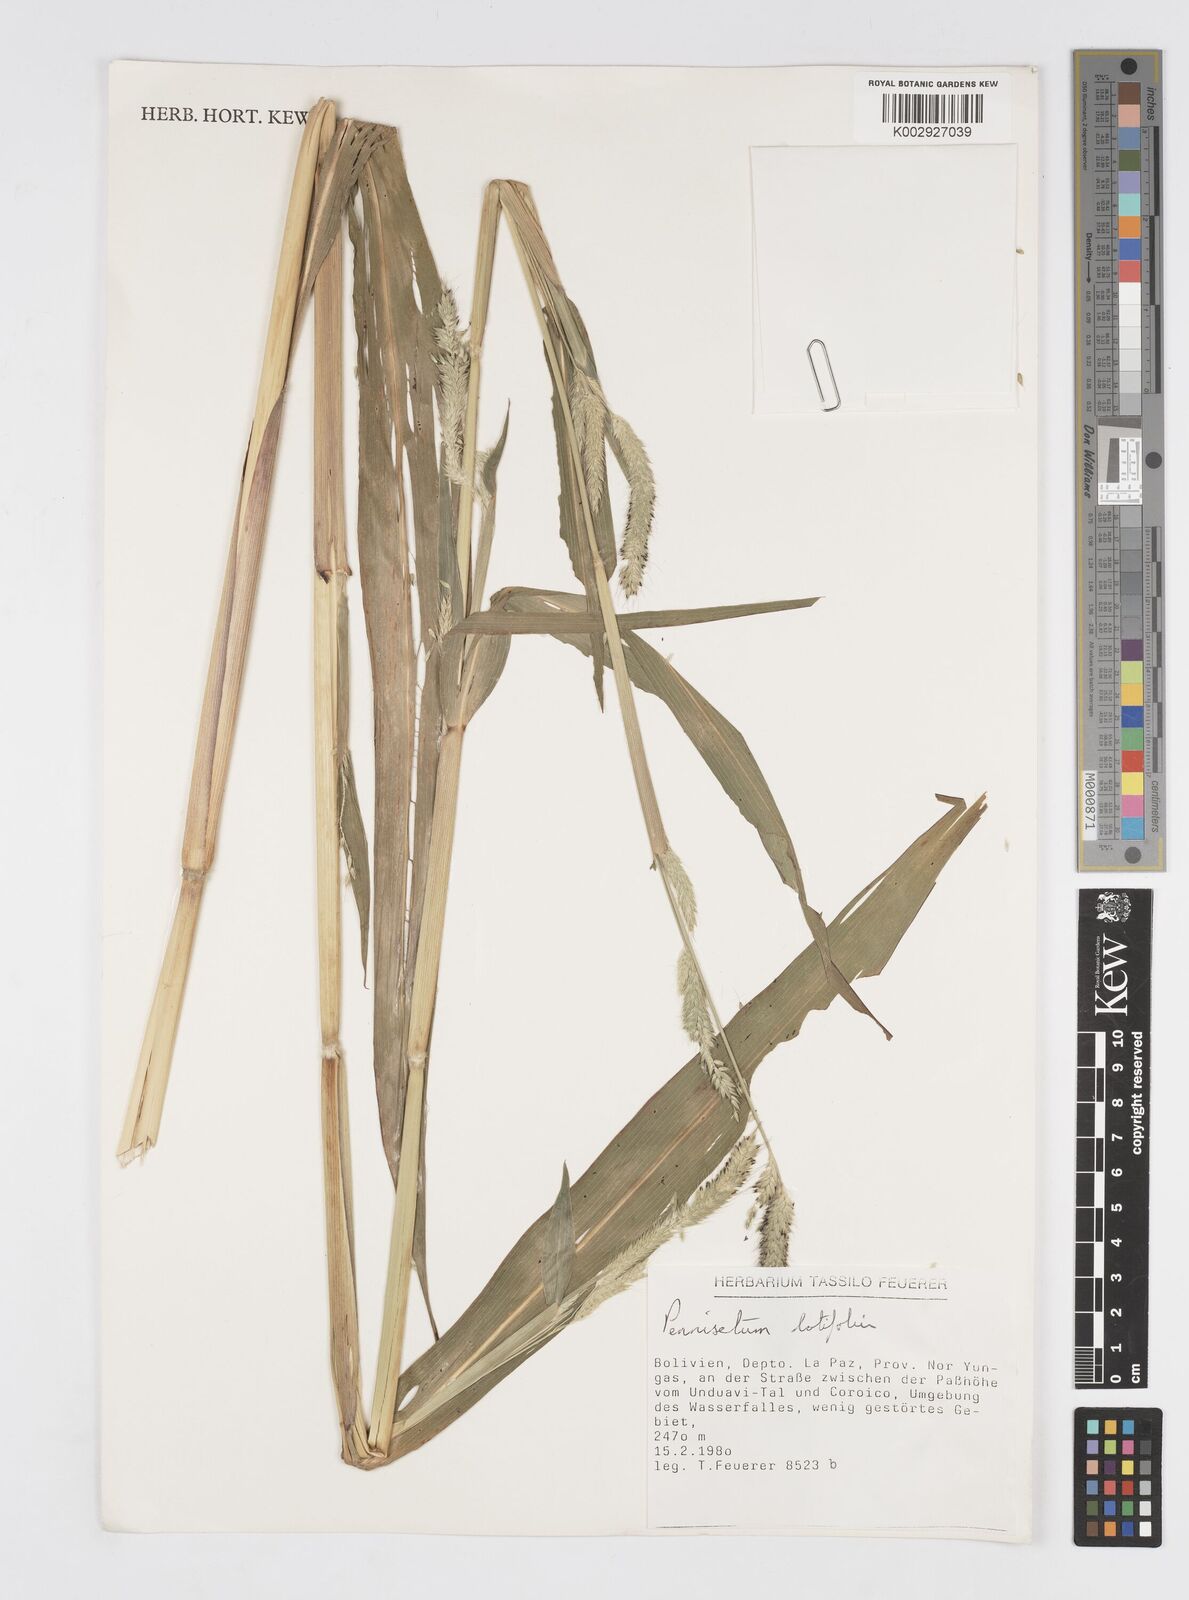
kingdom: Plantae
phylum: Tracheophyta
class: Liliopsida
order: Poales
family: Poaceae
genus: Cenchrus
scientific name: Cenchrus latifolius
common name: Sandbur
